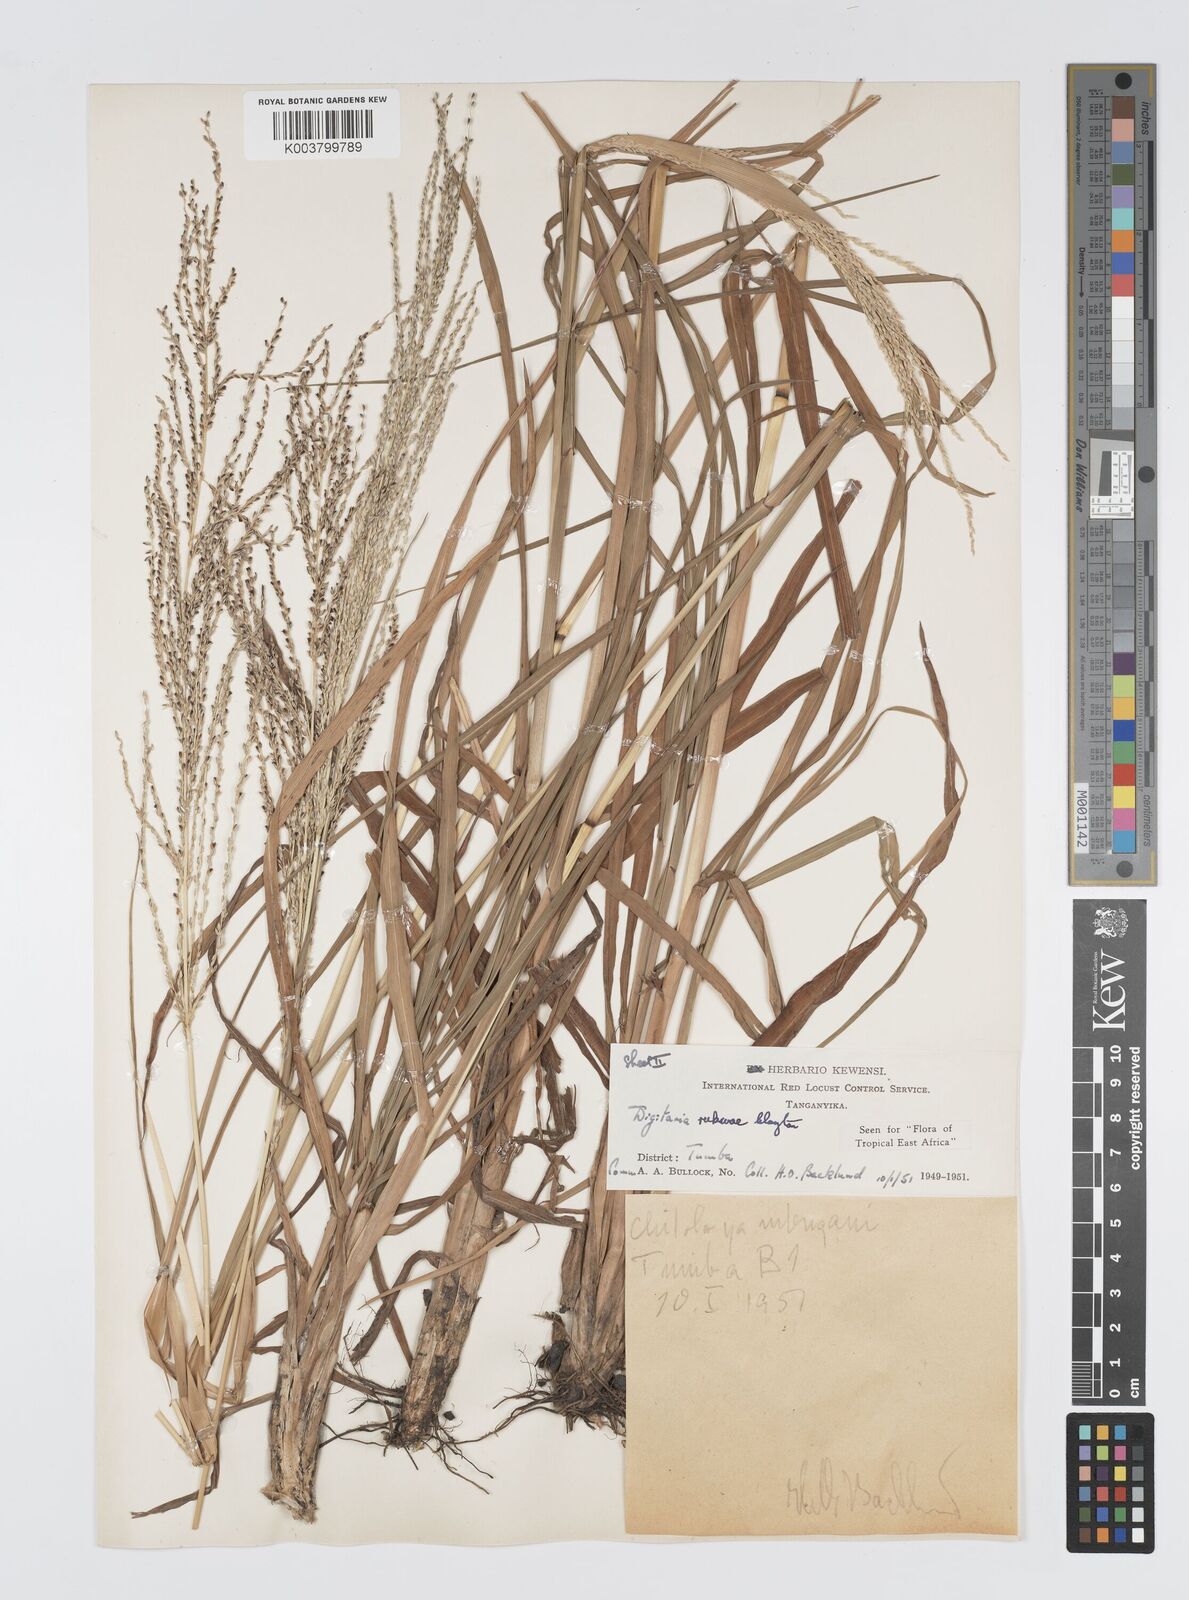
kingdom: Plantae
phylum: Tracheophyta
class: Liliopsida
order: Poales
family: Poaceae
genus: Digitaria
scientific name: Digitaria rukwae
